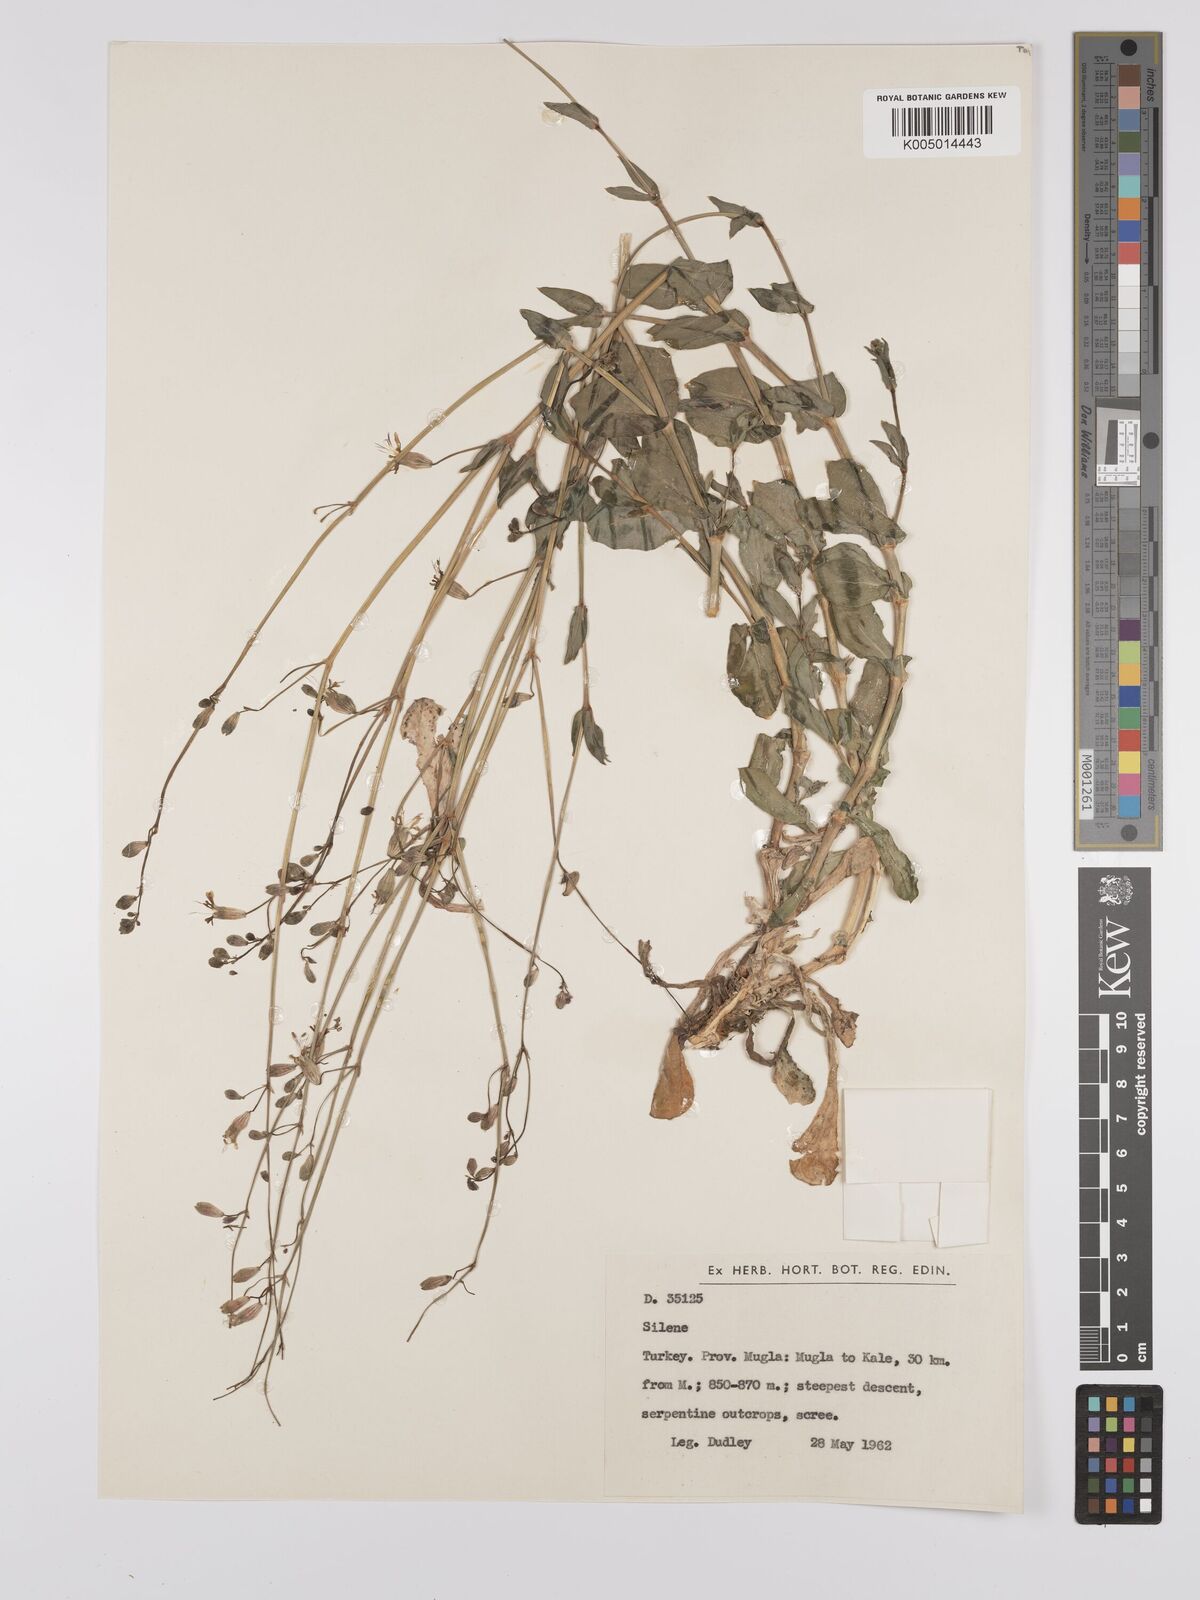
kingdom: Plantae
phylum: Tracheophyta
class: Magnoliopsida
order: Caryophyllales
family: Caryophyllaceae
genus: Silene
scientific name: Silene
